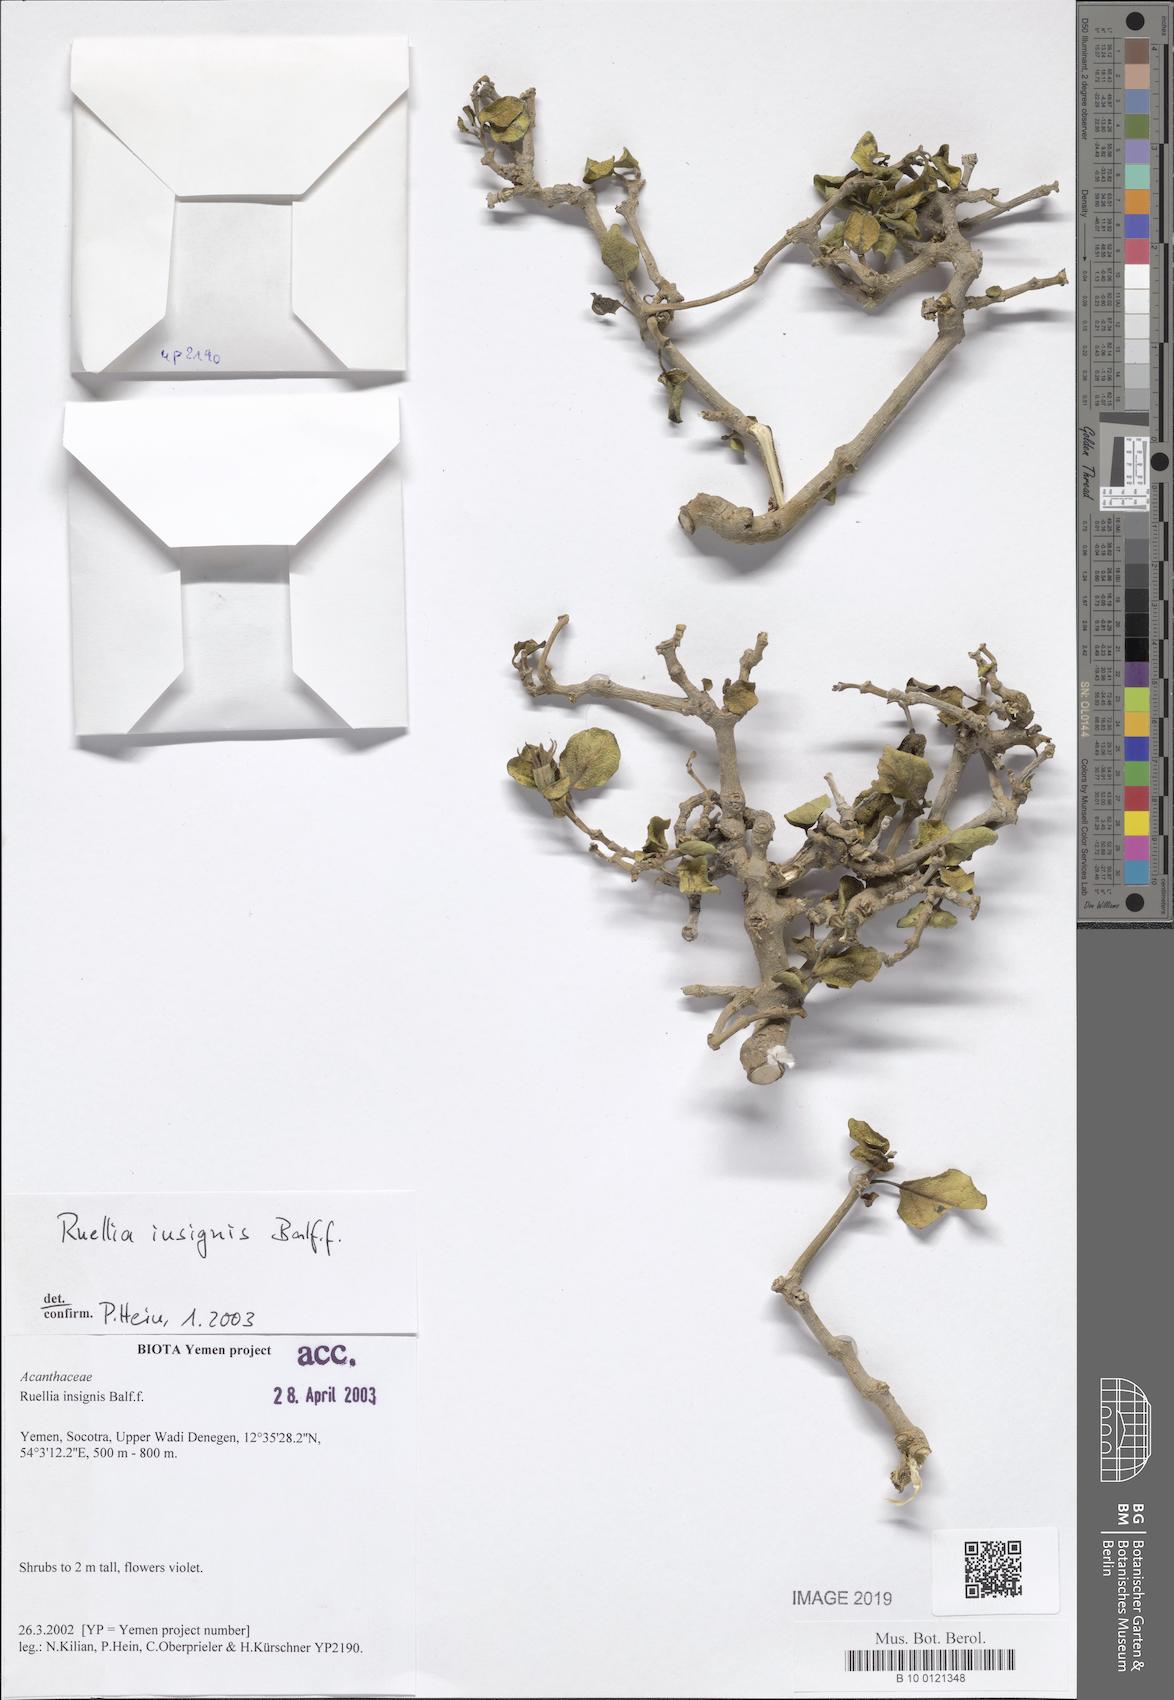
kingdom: Plantae
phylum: Tracheophyta
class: Magnoliopsida
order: Lamiales
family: Acanthaceae
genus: Ruellia
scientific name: Ruellia insignis
